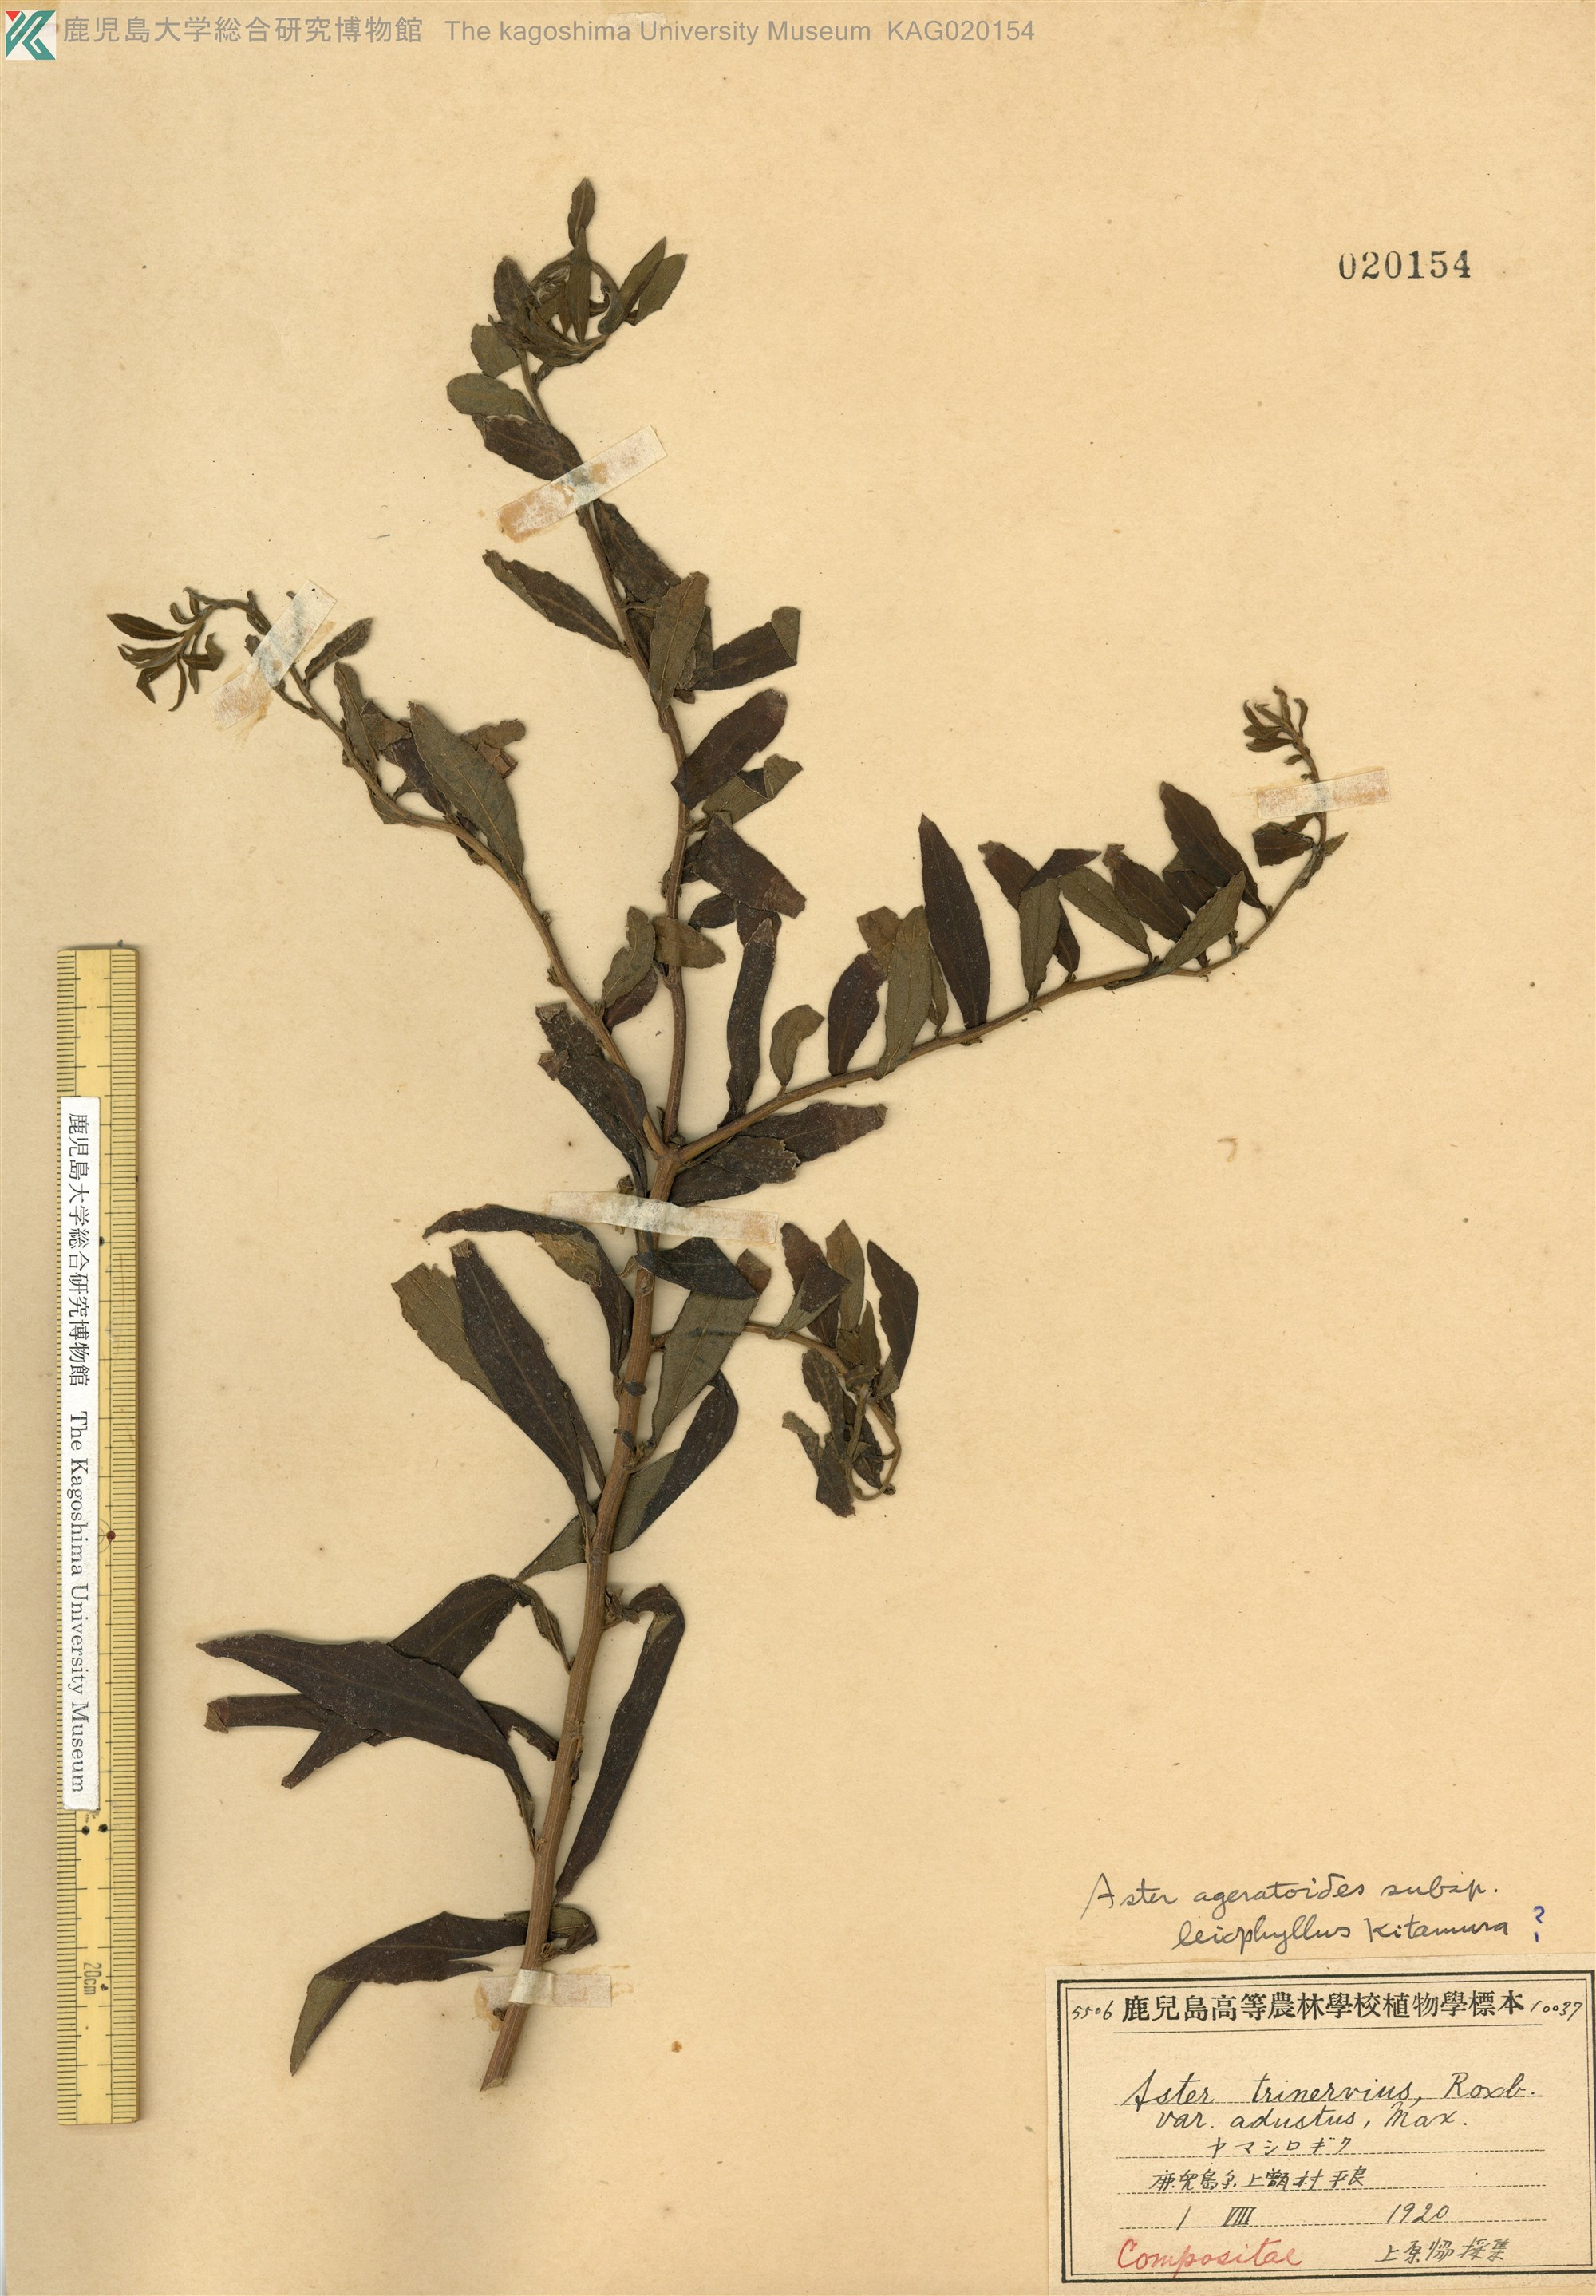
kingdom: Plantae
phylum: Tracheophyta
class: Magnoliopsida
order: Asterales
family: Asteraceae
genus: Heteropappus
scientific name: Heteropappus hispidus
